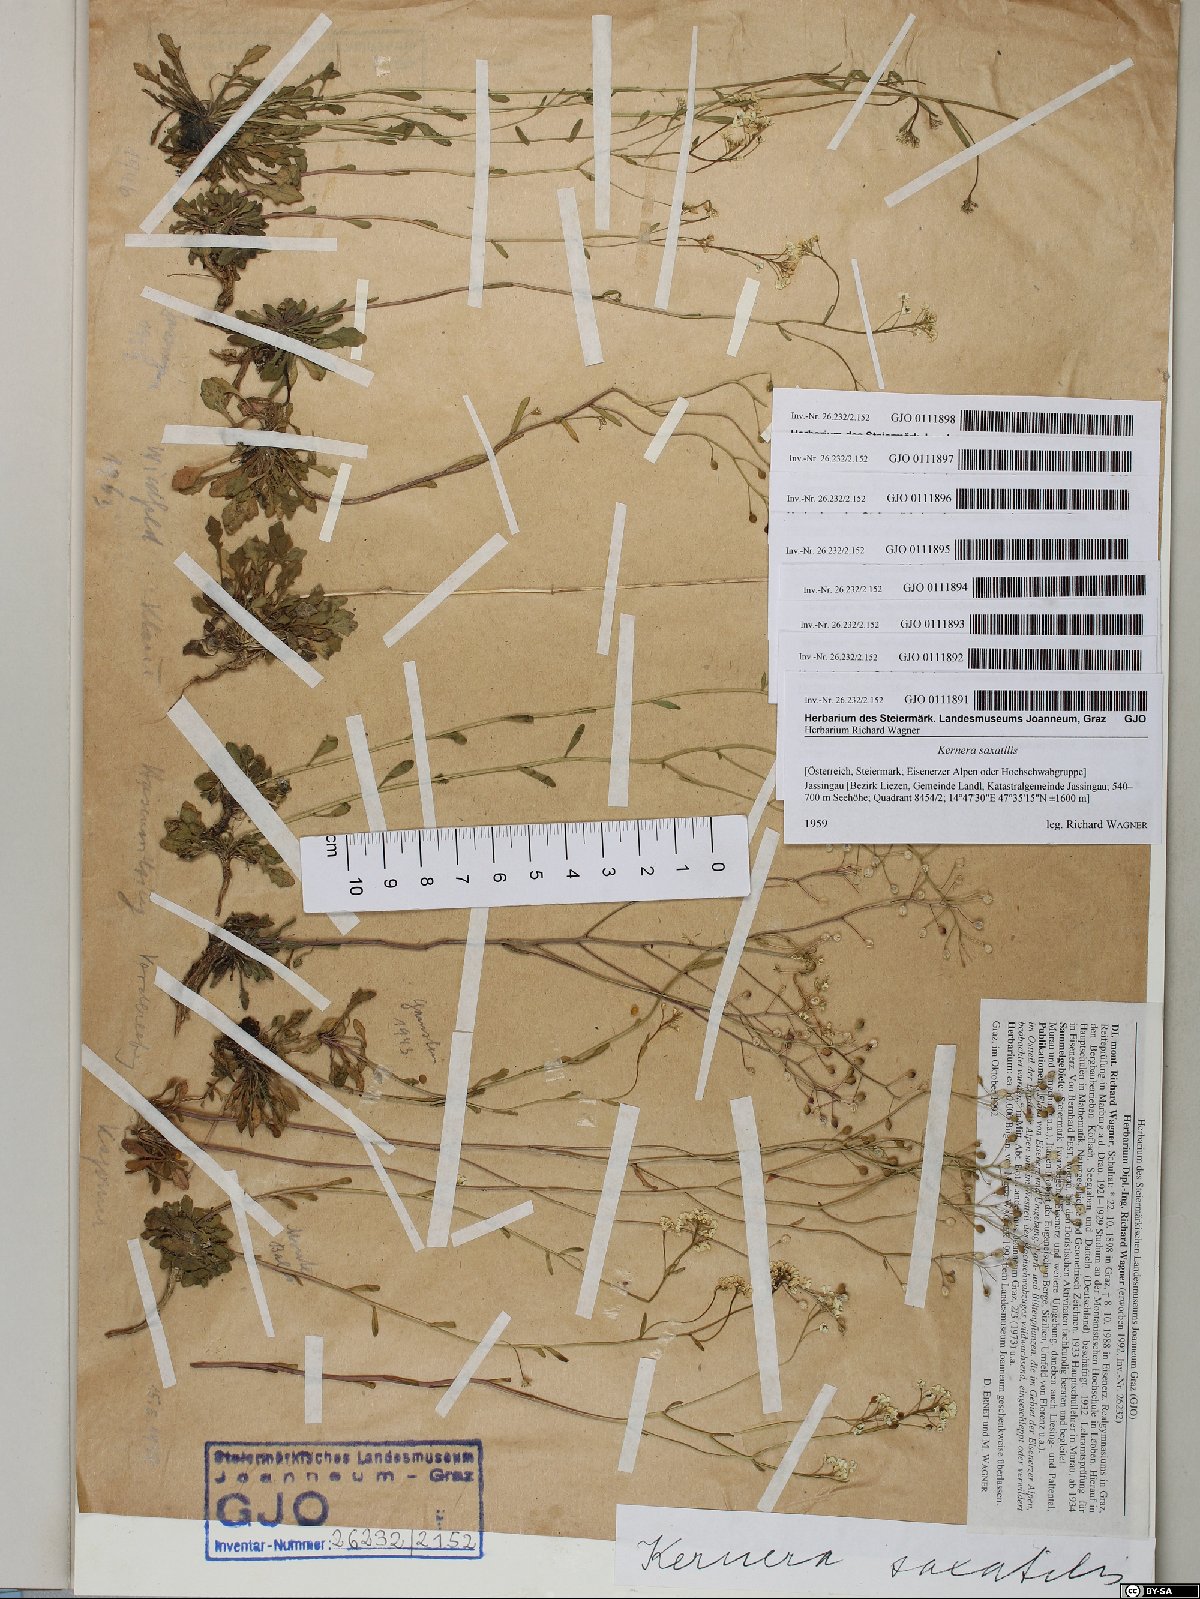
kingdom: Plantae
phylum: Tracheophyta
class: Magnoliopsida
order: Brassicales
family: Brassicaceae
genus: Kernera
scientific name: Kernera saxatilis
